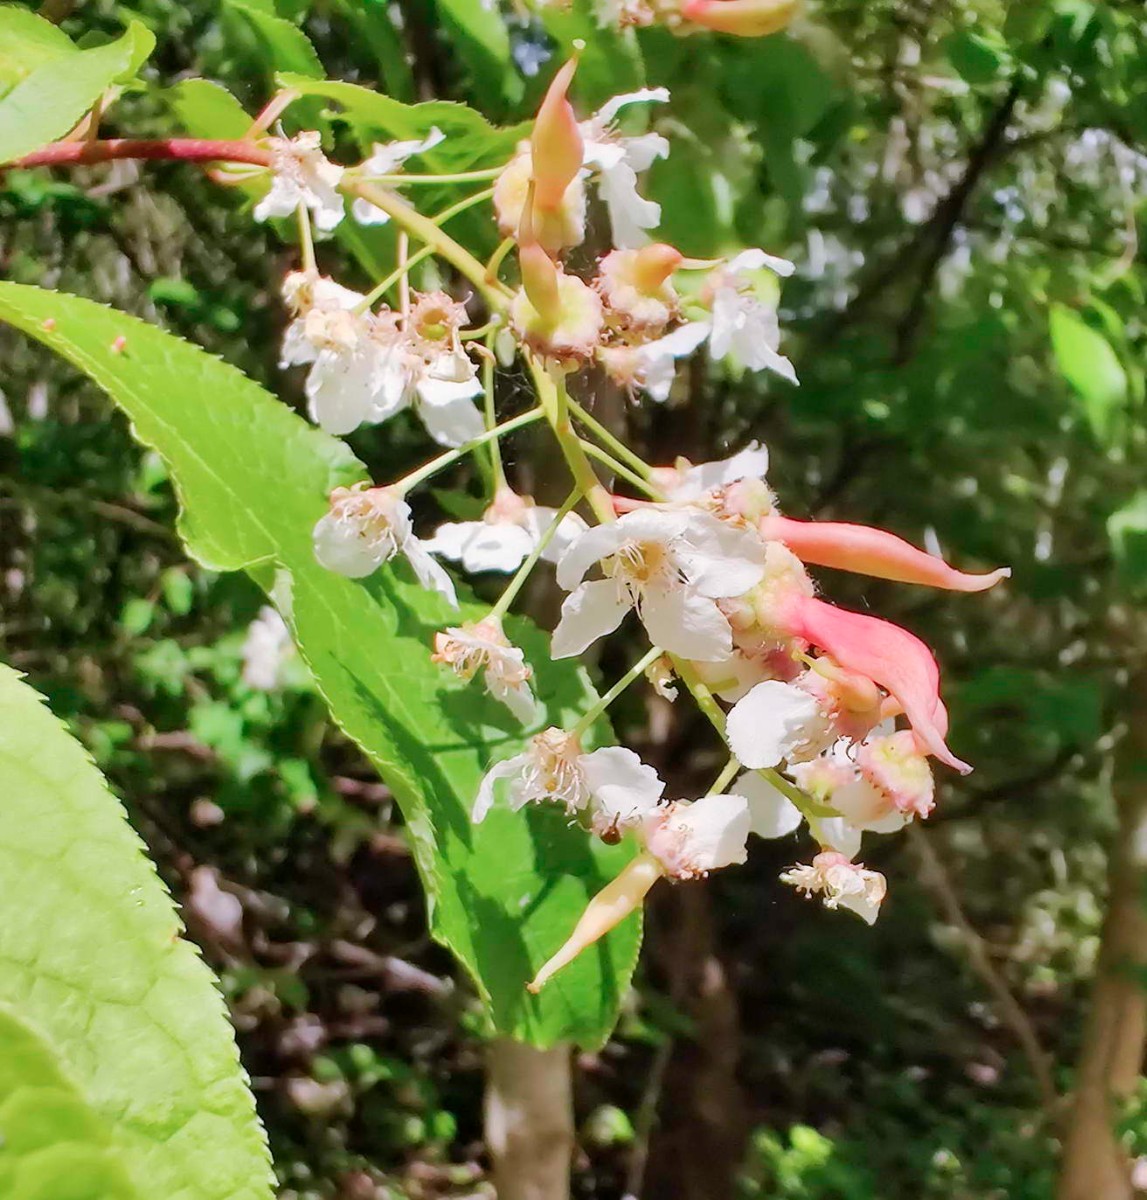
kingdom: Fungi
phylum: Ascomycota
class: Taphrinomycetes
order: Taphrinales
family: Taphrinaceae
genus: Taphrina
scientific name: Taphrina padi
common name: Bird cherry pocket
